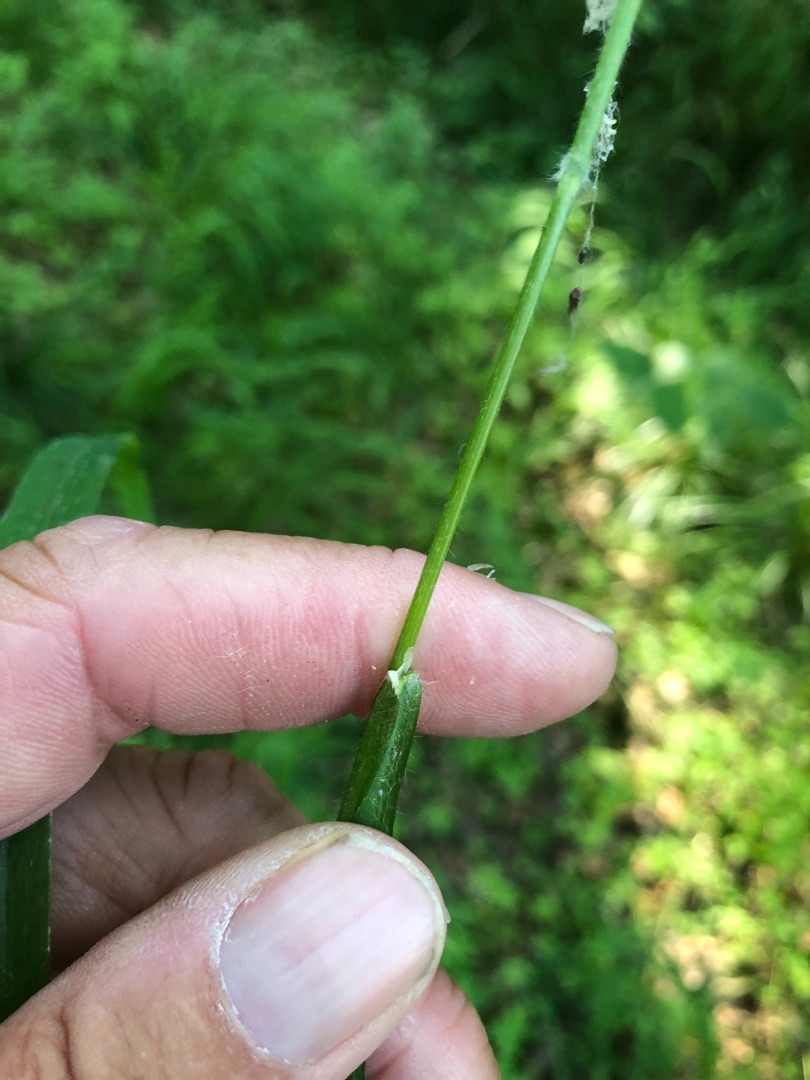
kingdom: Plantae
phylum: Tracheophyta
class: Liliopsida
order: Poales
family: Poaceae
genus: Brachypodium
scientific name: Brachypodium sylvaticum
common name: Skov-stilkaks
